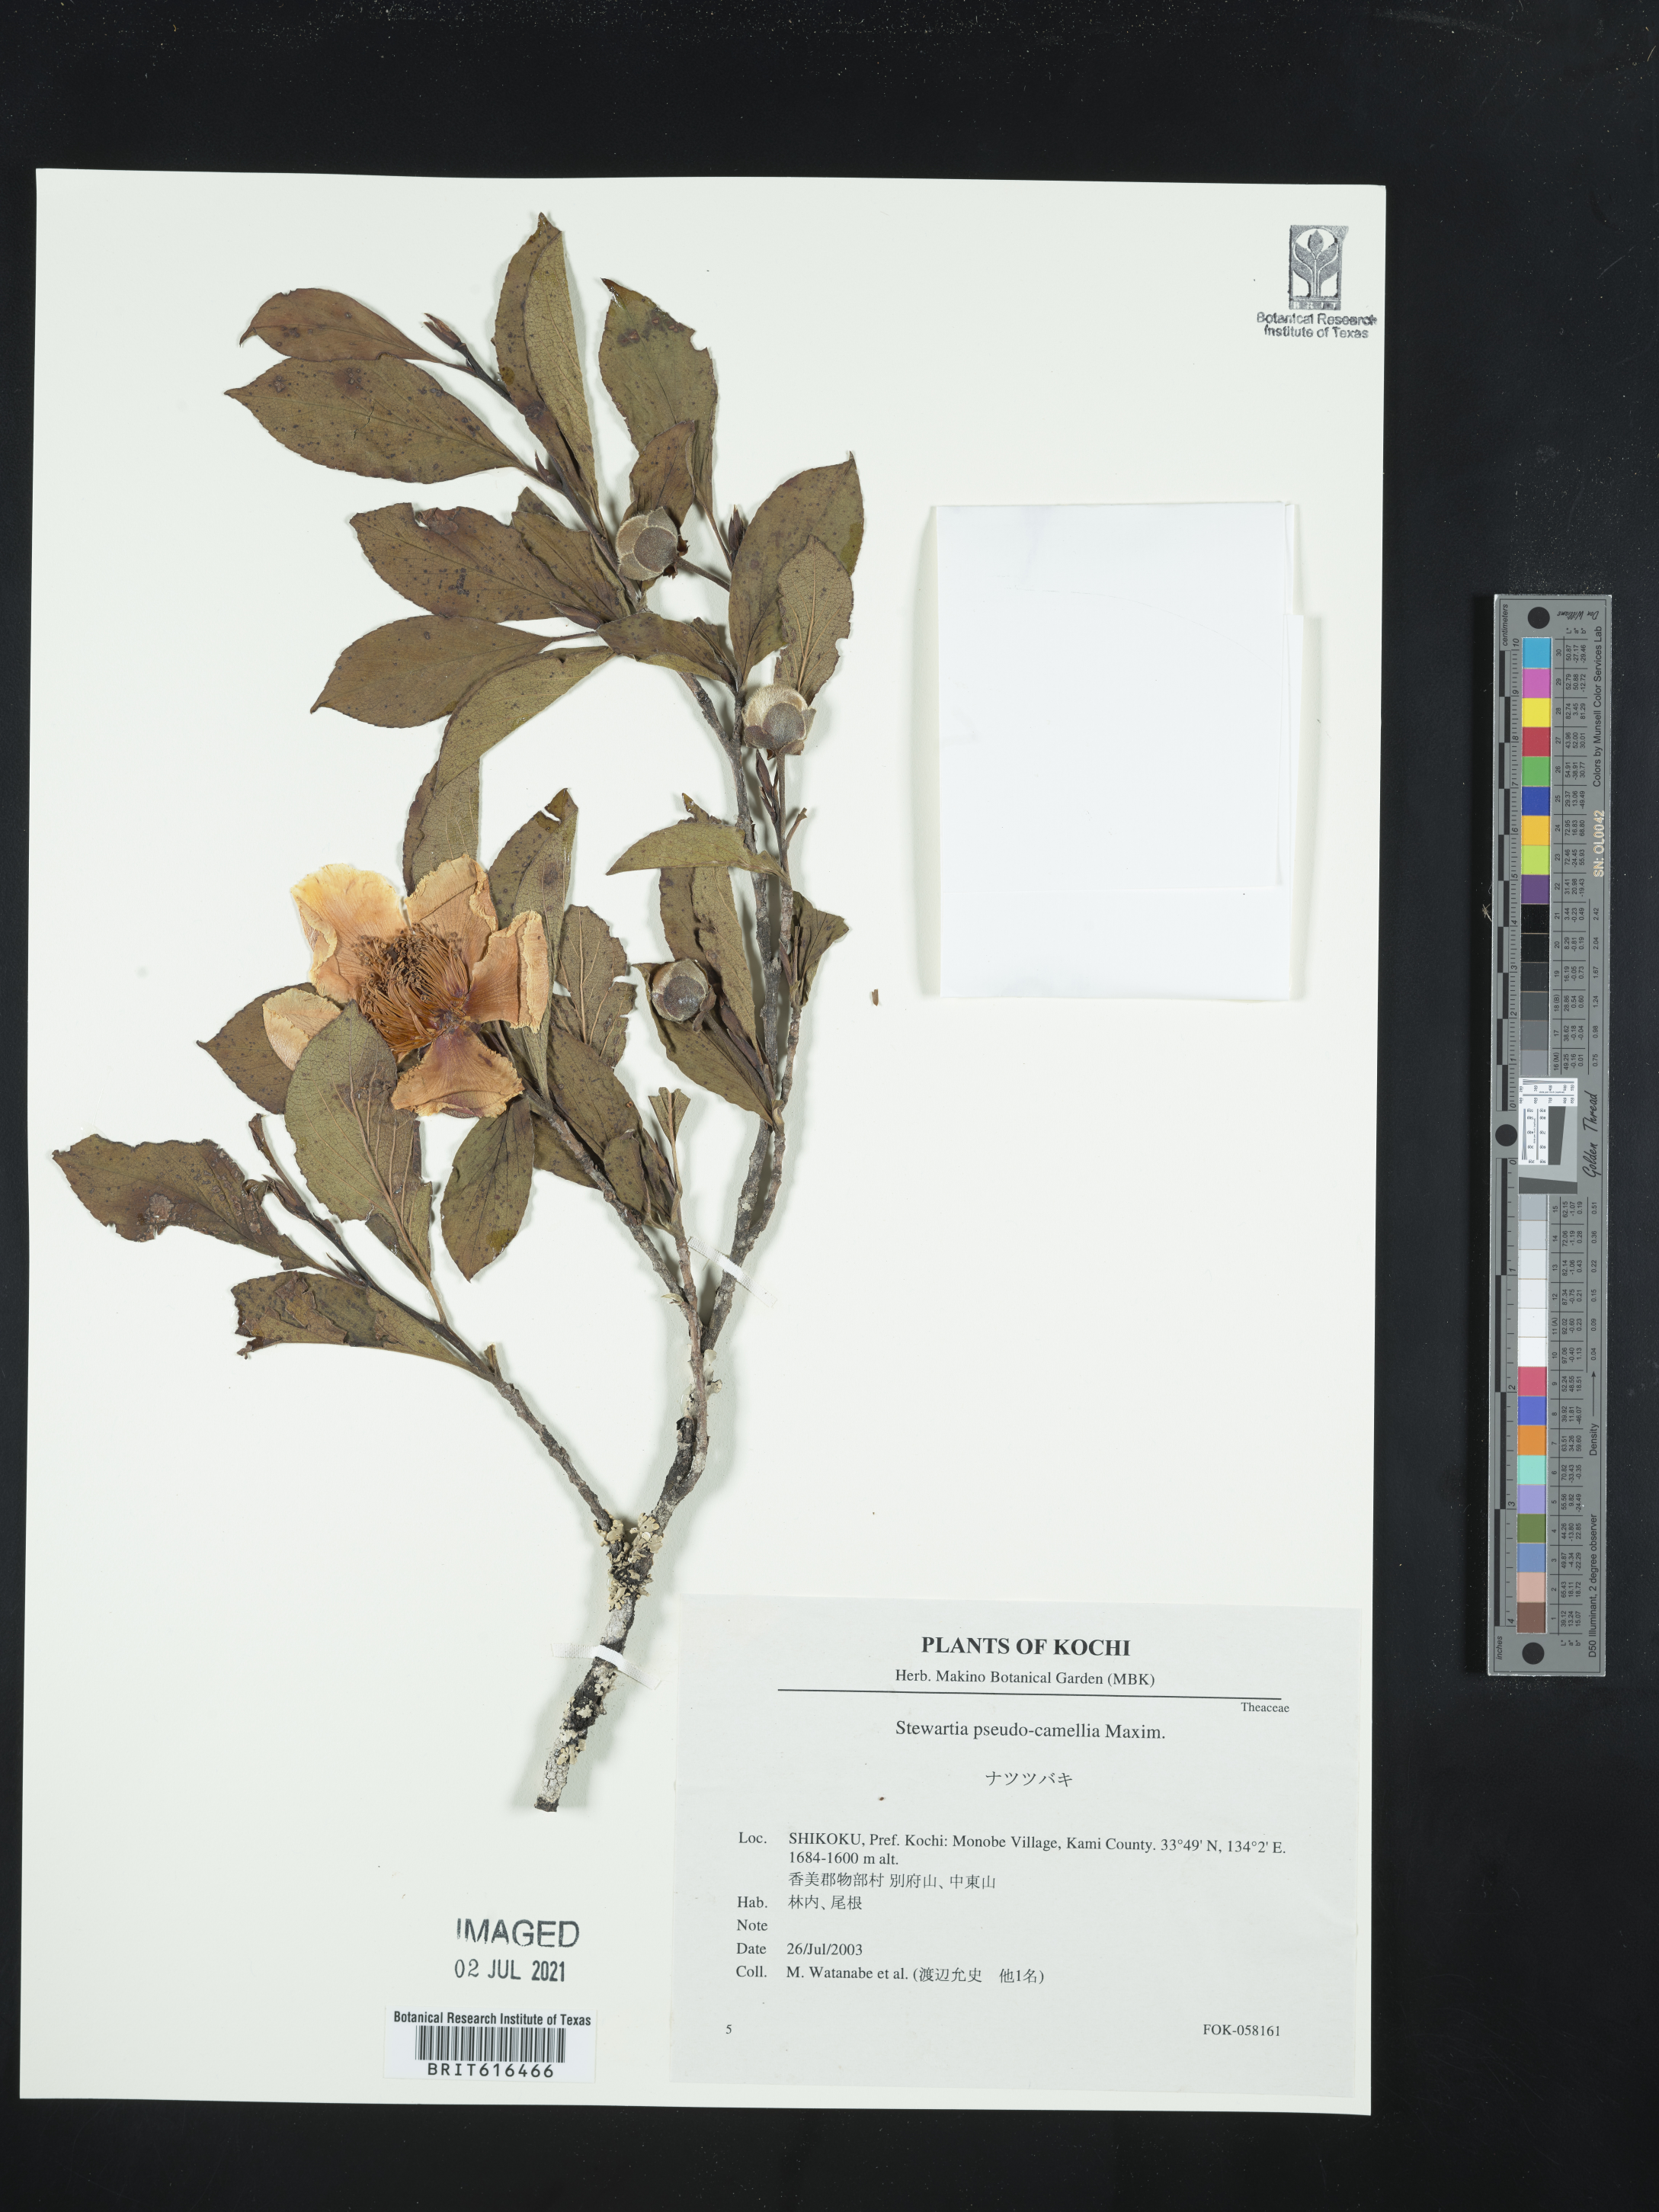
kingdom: Plantae
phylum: Tracheophyta
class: Magnoliopsida
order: Ericales
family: Theaceae
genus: Stewartia
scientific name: Stewartia pseudocamellia
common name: Japanese stewartia
